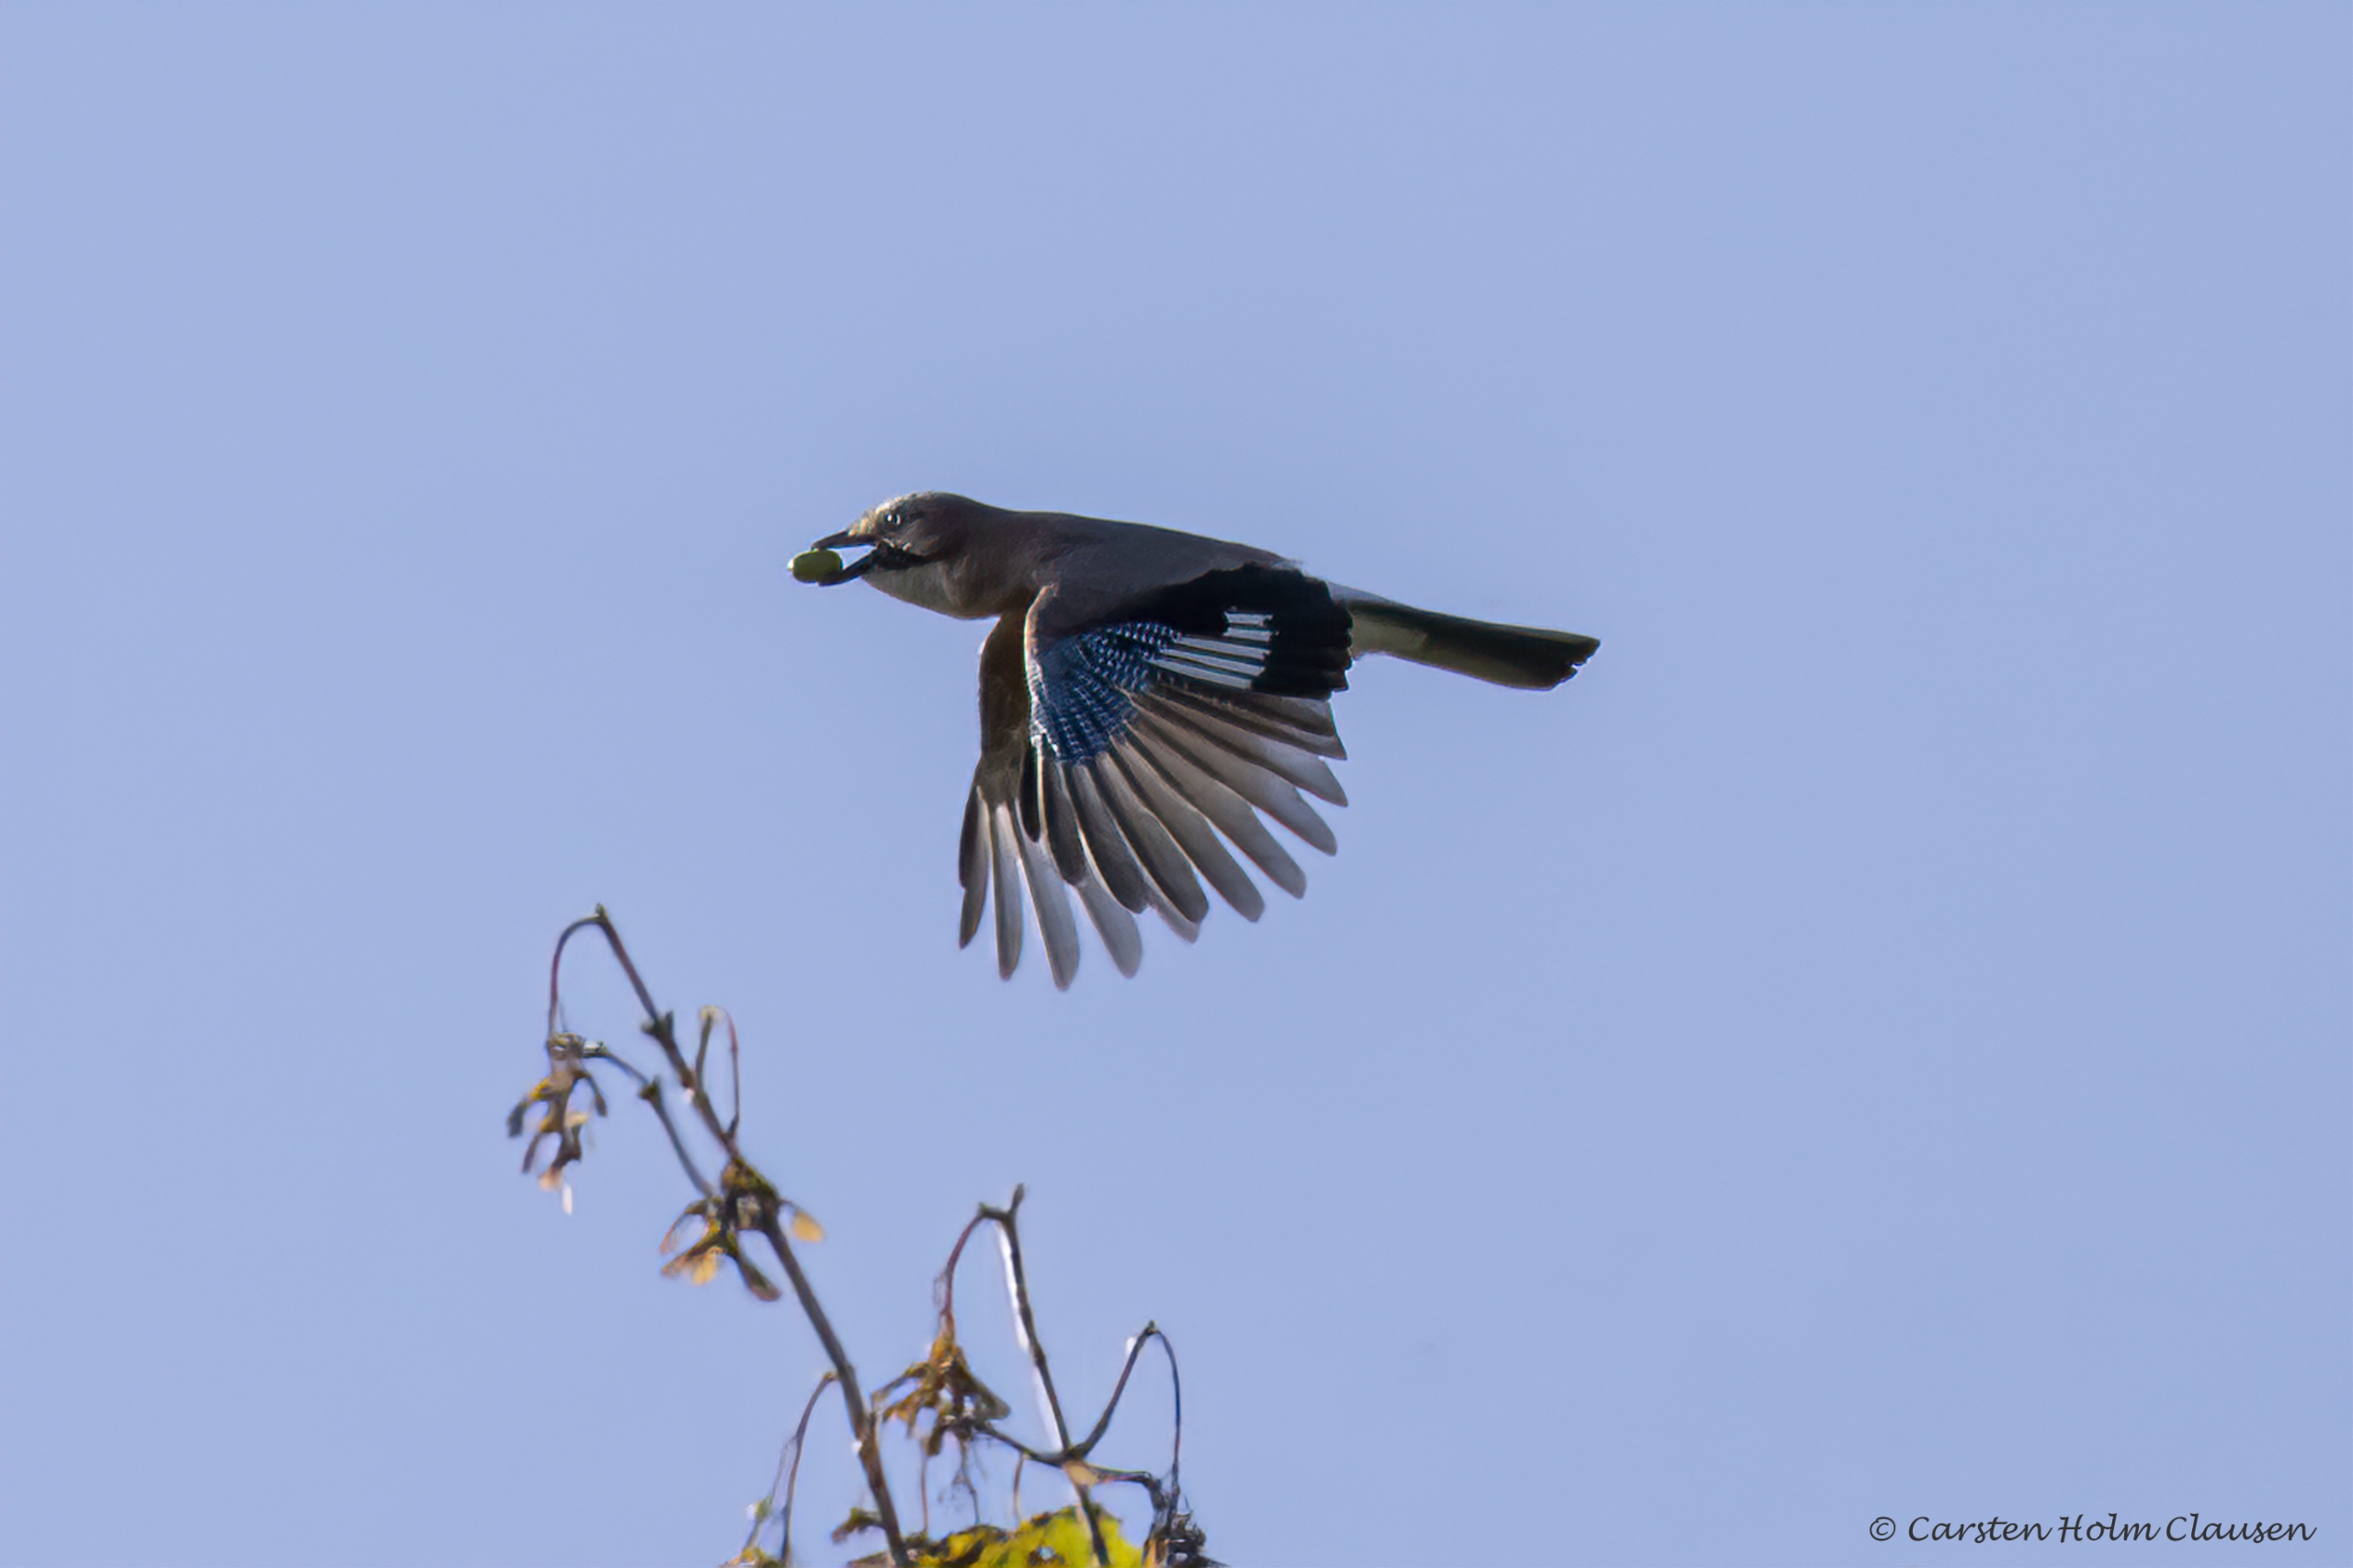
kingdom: Animalia
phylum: Chordata
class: Aves
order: Passeriformes
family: Corvidae
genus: Garrulus
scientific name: Garrulus glandarius
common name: Skovskade
